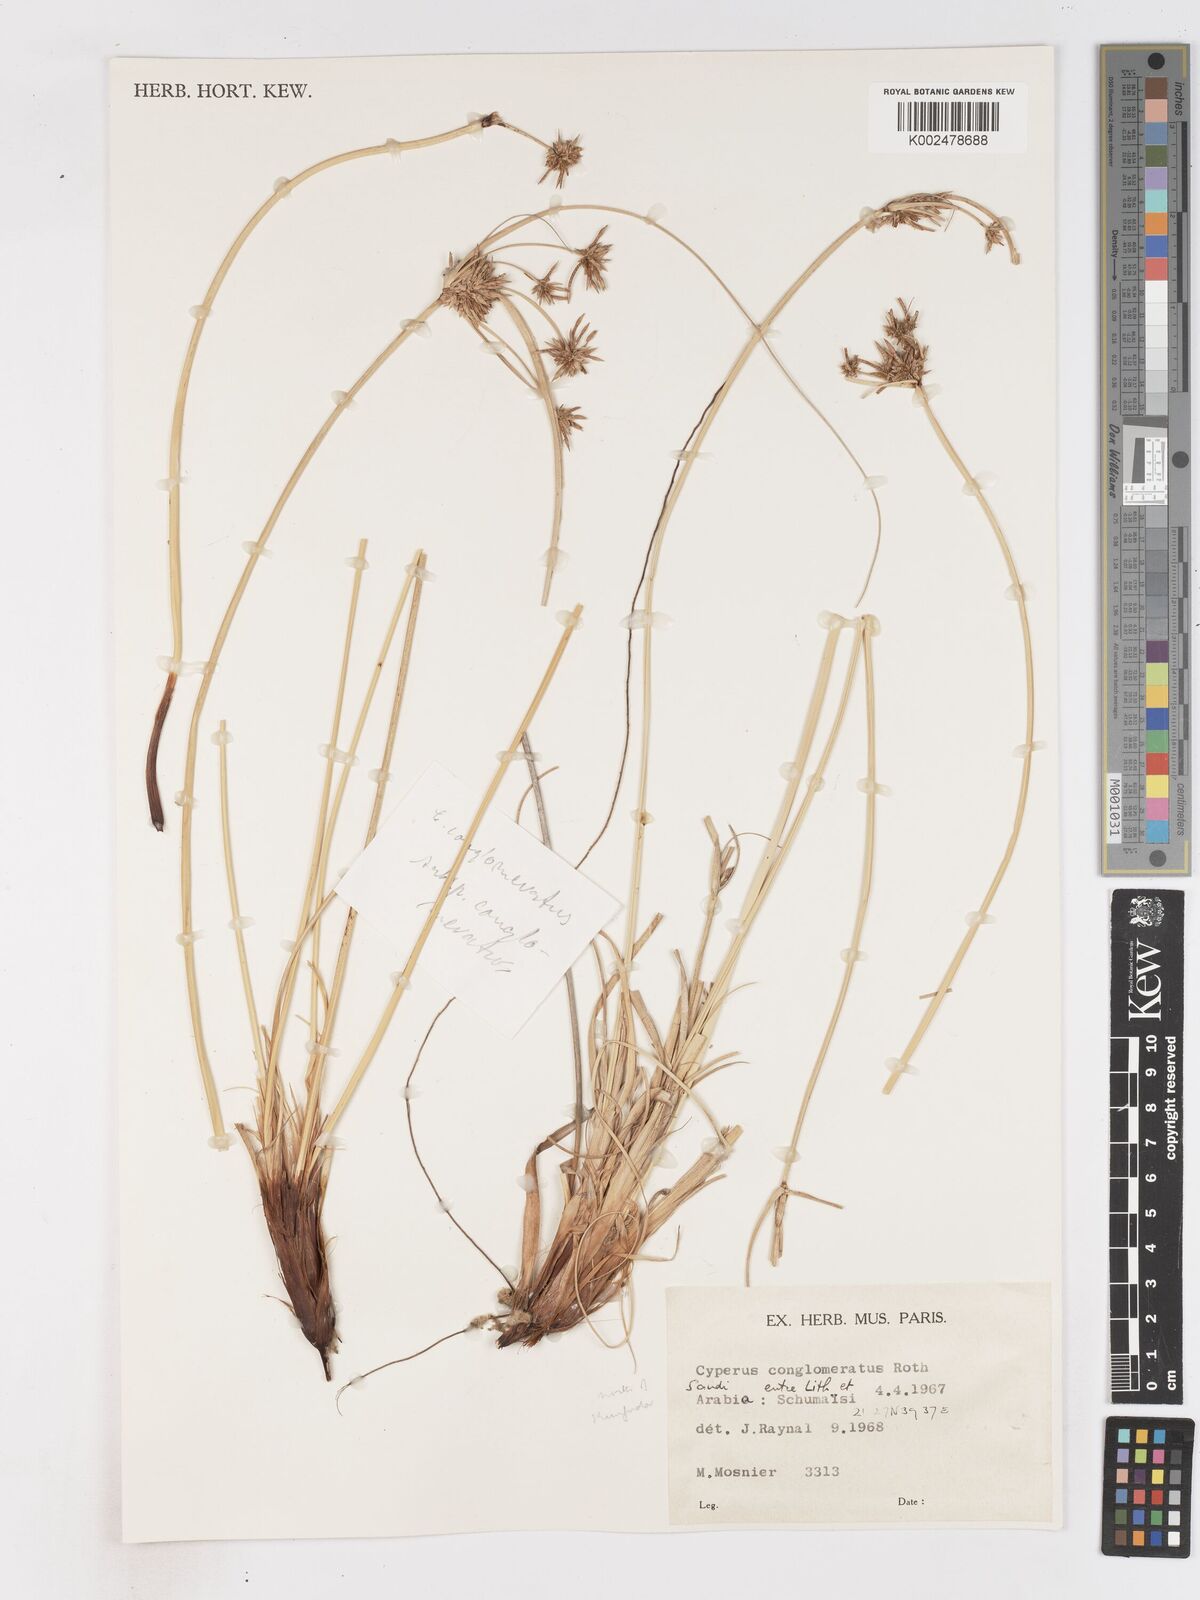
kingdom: Plantae
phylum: Tracheophyta
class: Liliopsida
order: Poales
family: Cyperaceae
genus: Cyperus
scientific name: Cyperus conglomeratus
